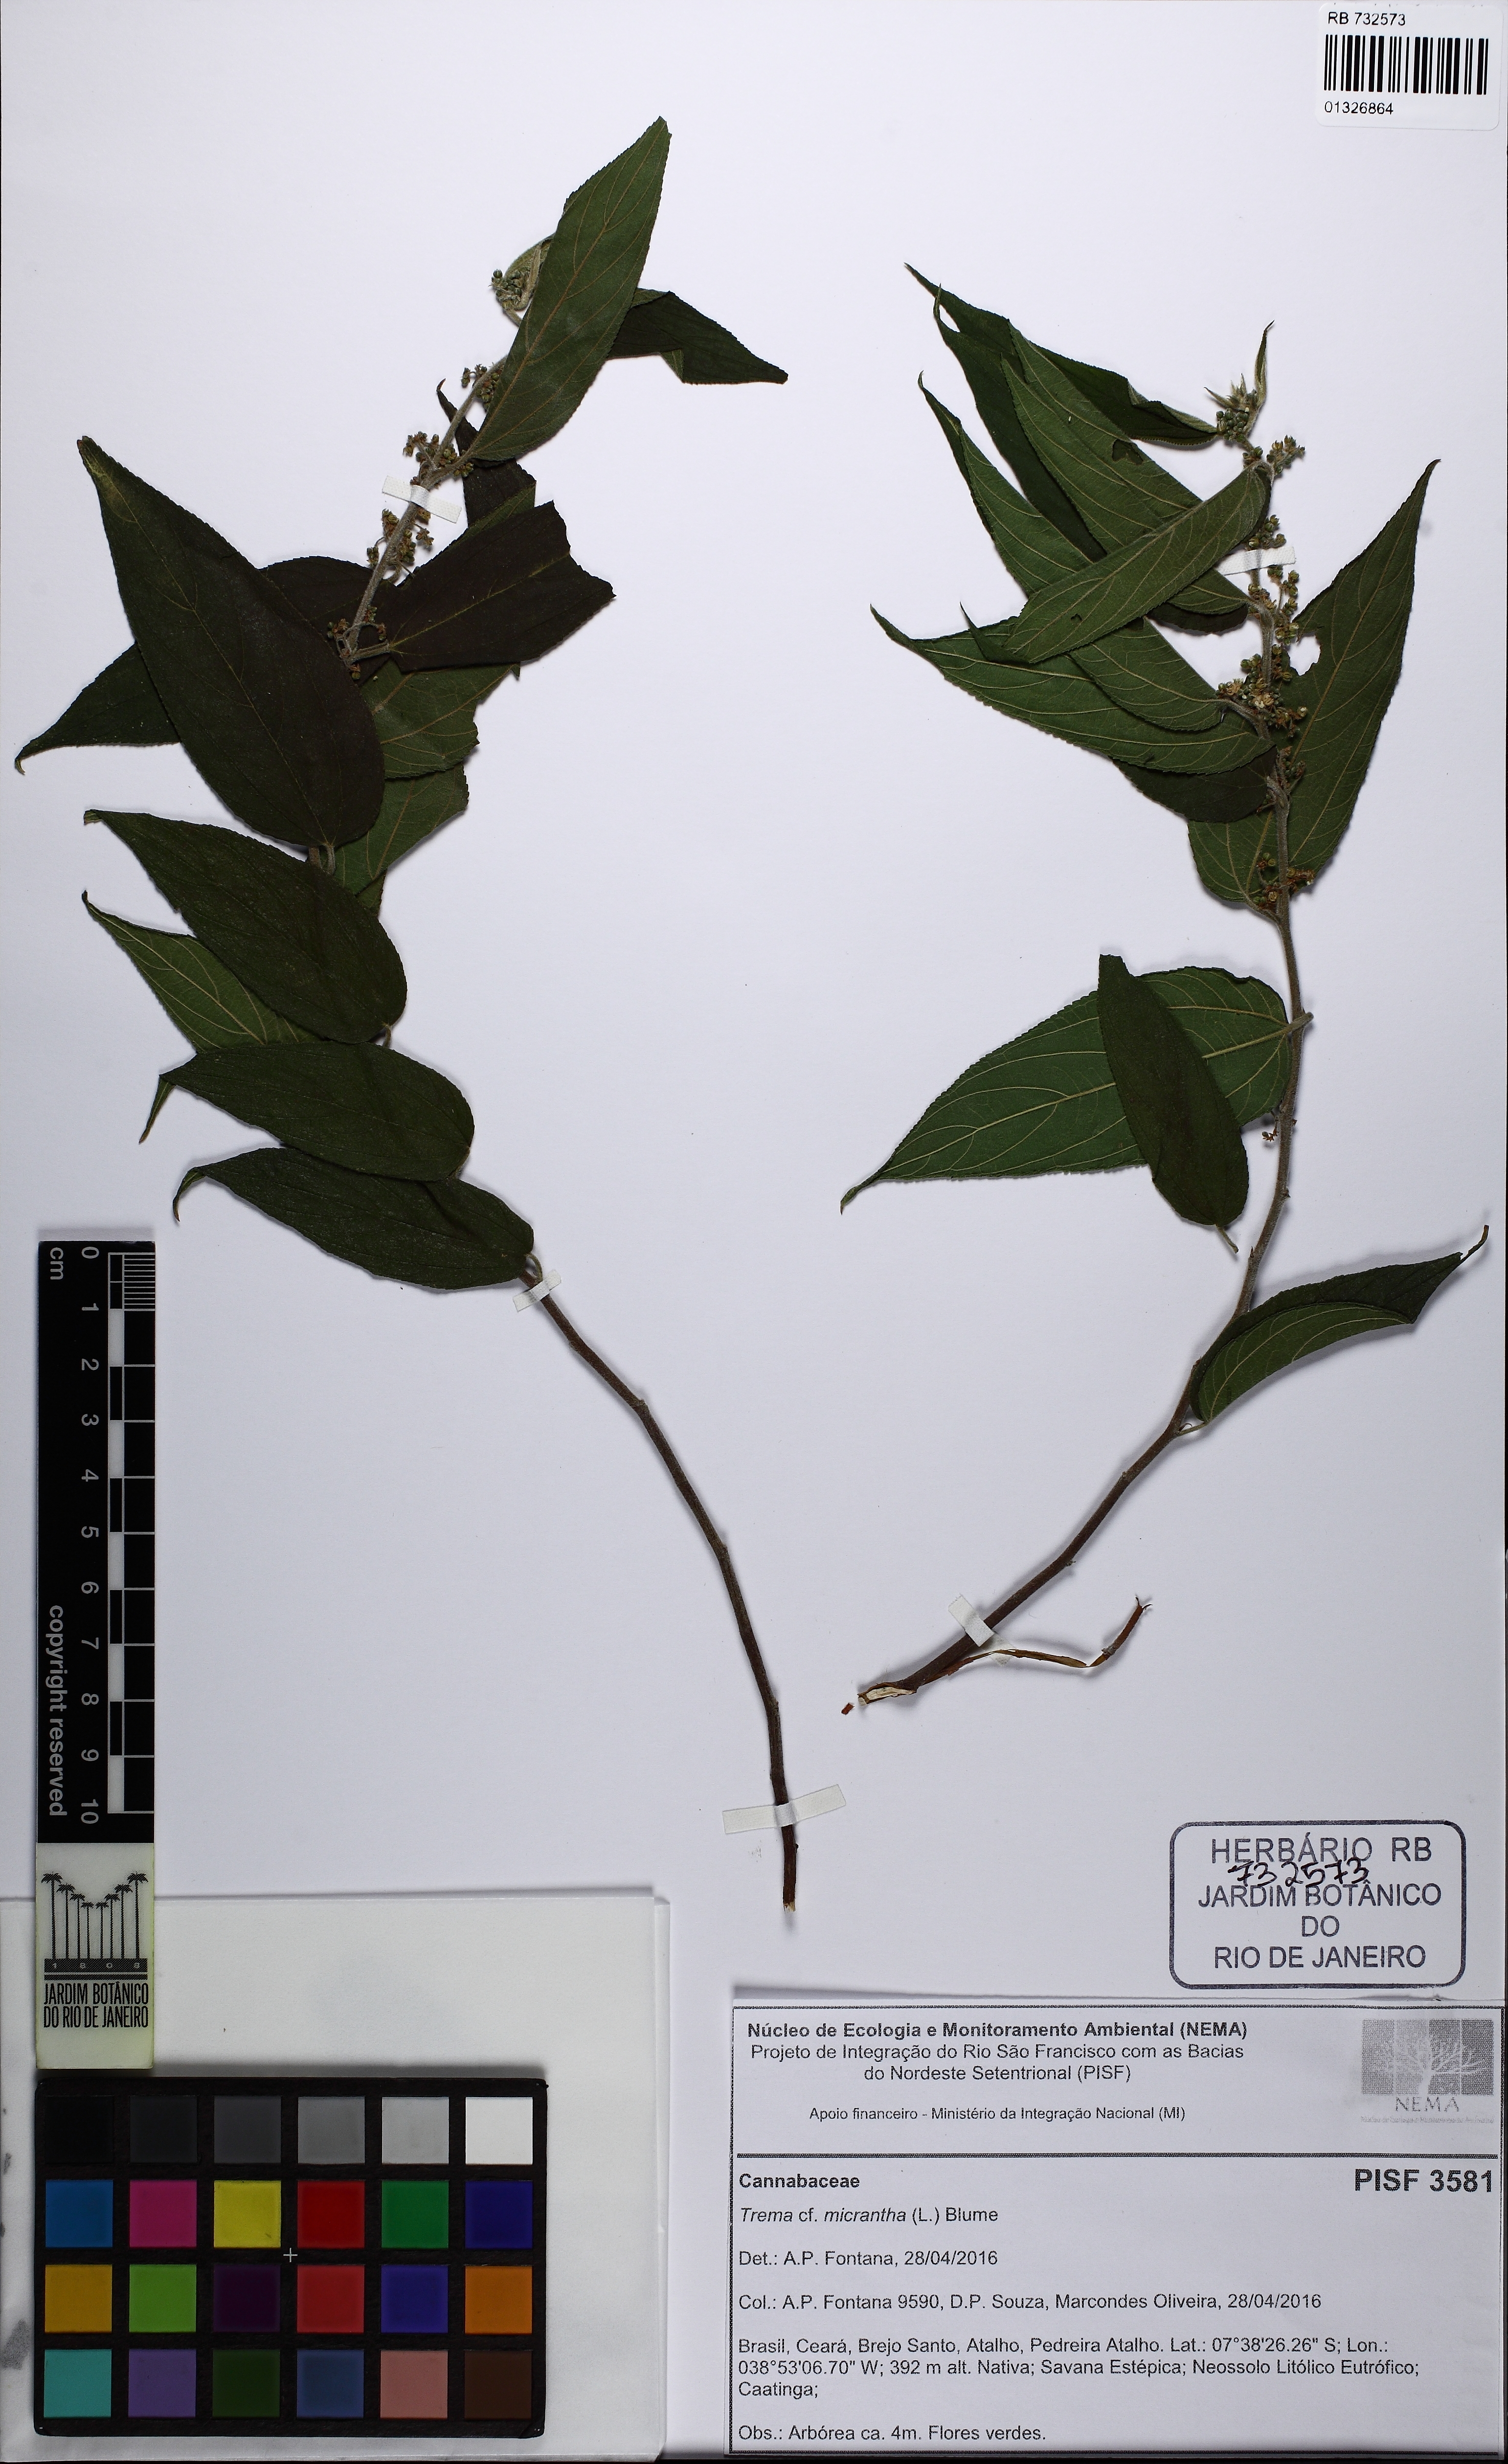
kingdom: Plantae
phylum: Tracheophyta
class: Magnoliopsida
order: Rosales
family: Cannabaceae
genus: Trema
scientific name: Trema micranthum
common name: Jamaican nettletree
